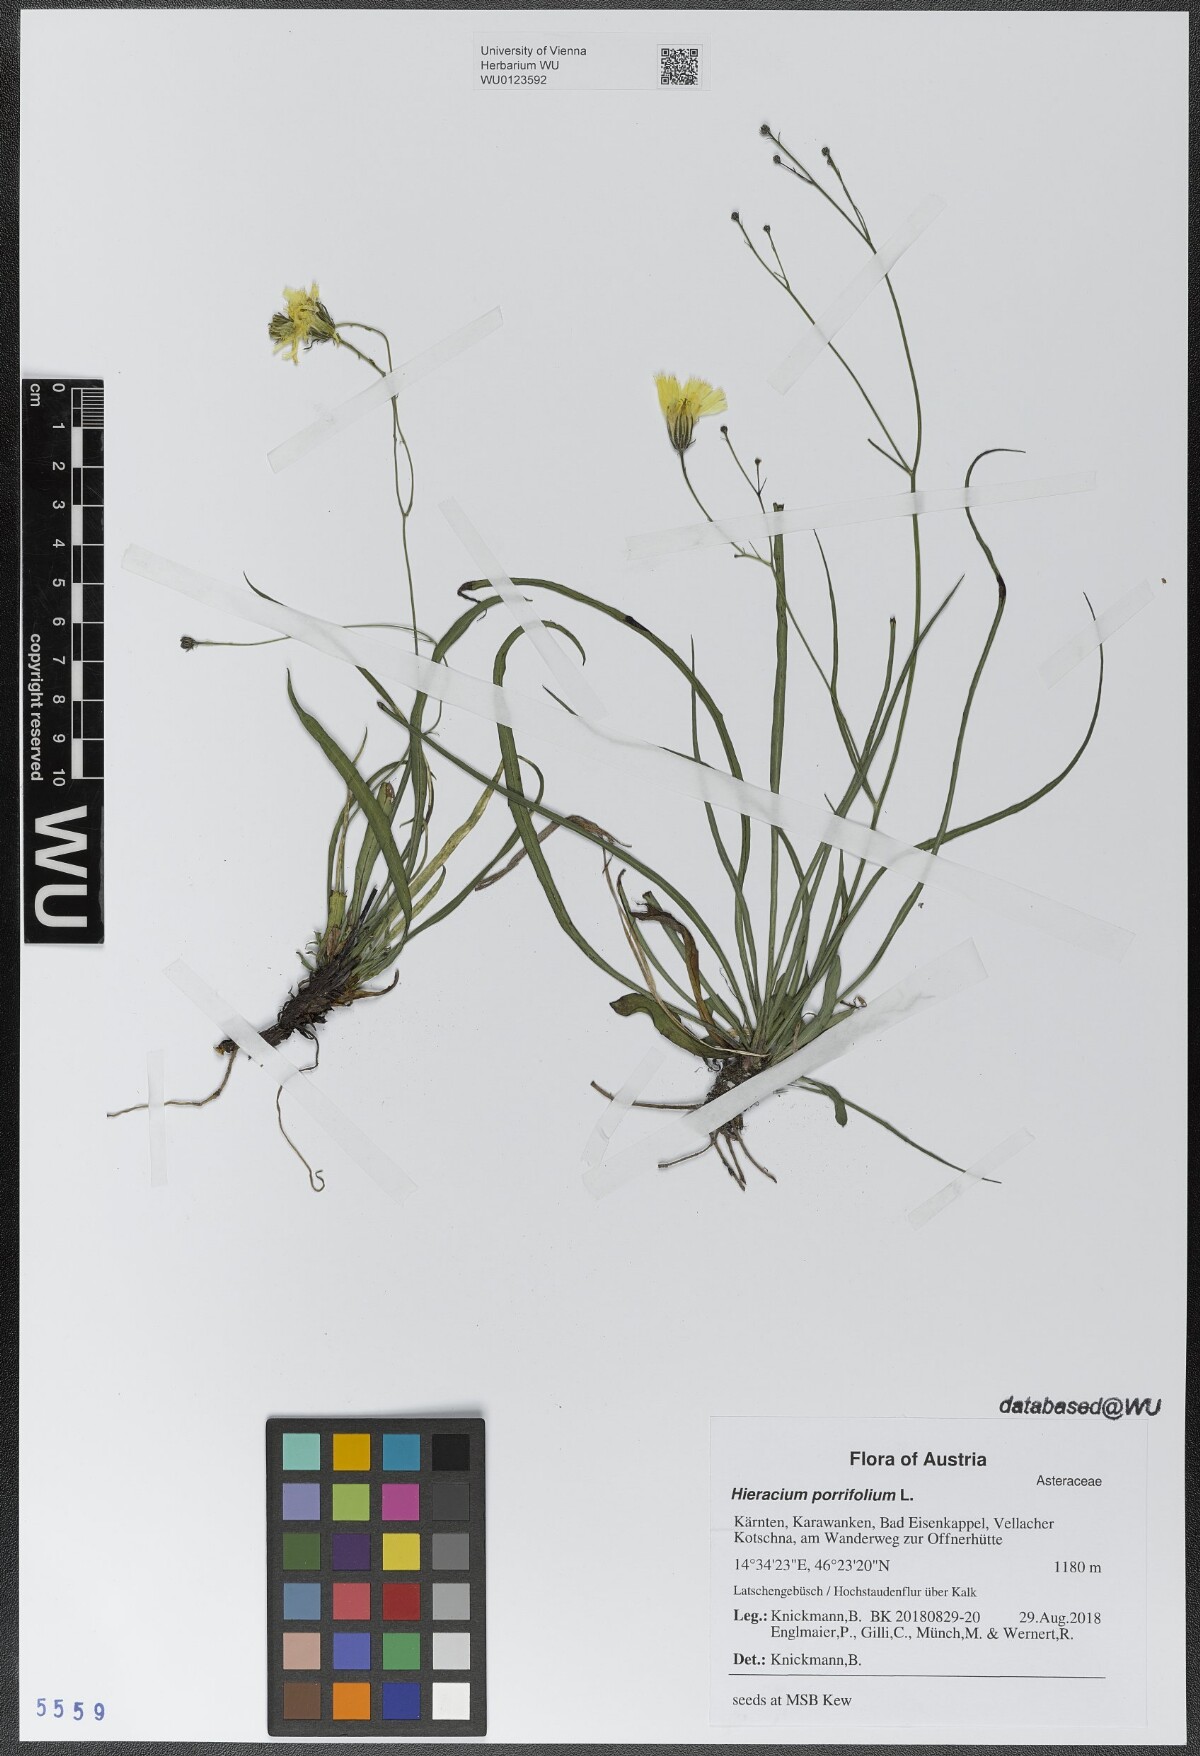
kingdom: Plantae
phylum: Tracheophyta
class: Magnoliopsida
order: Asterales
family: Asteraceae
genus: Hieracium
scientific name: Hieracium porrifolium
